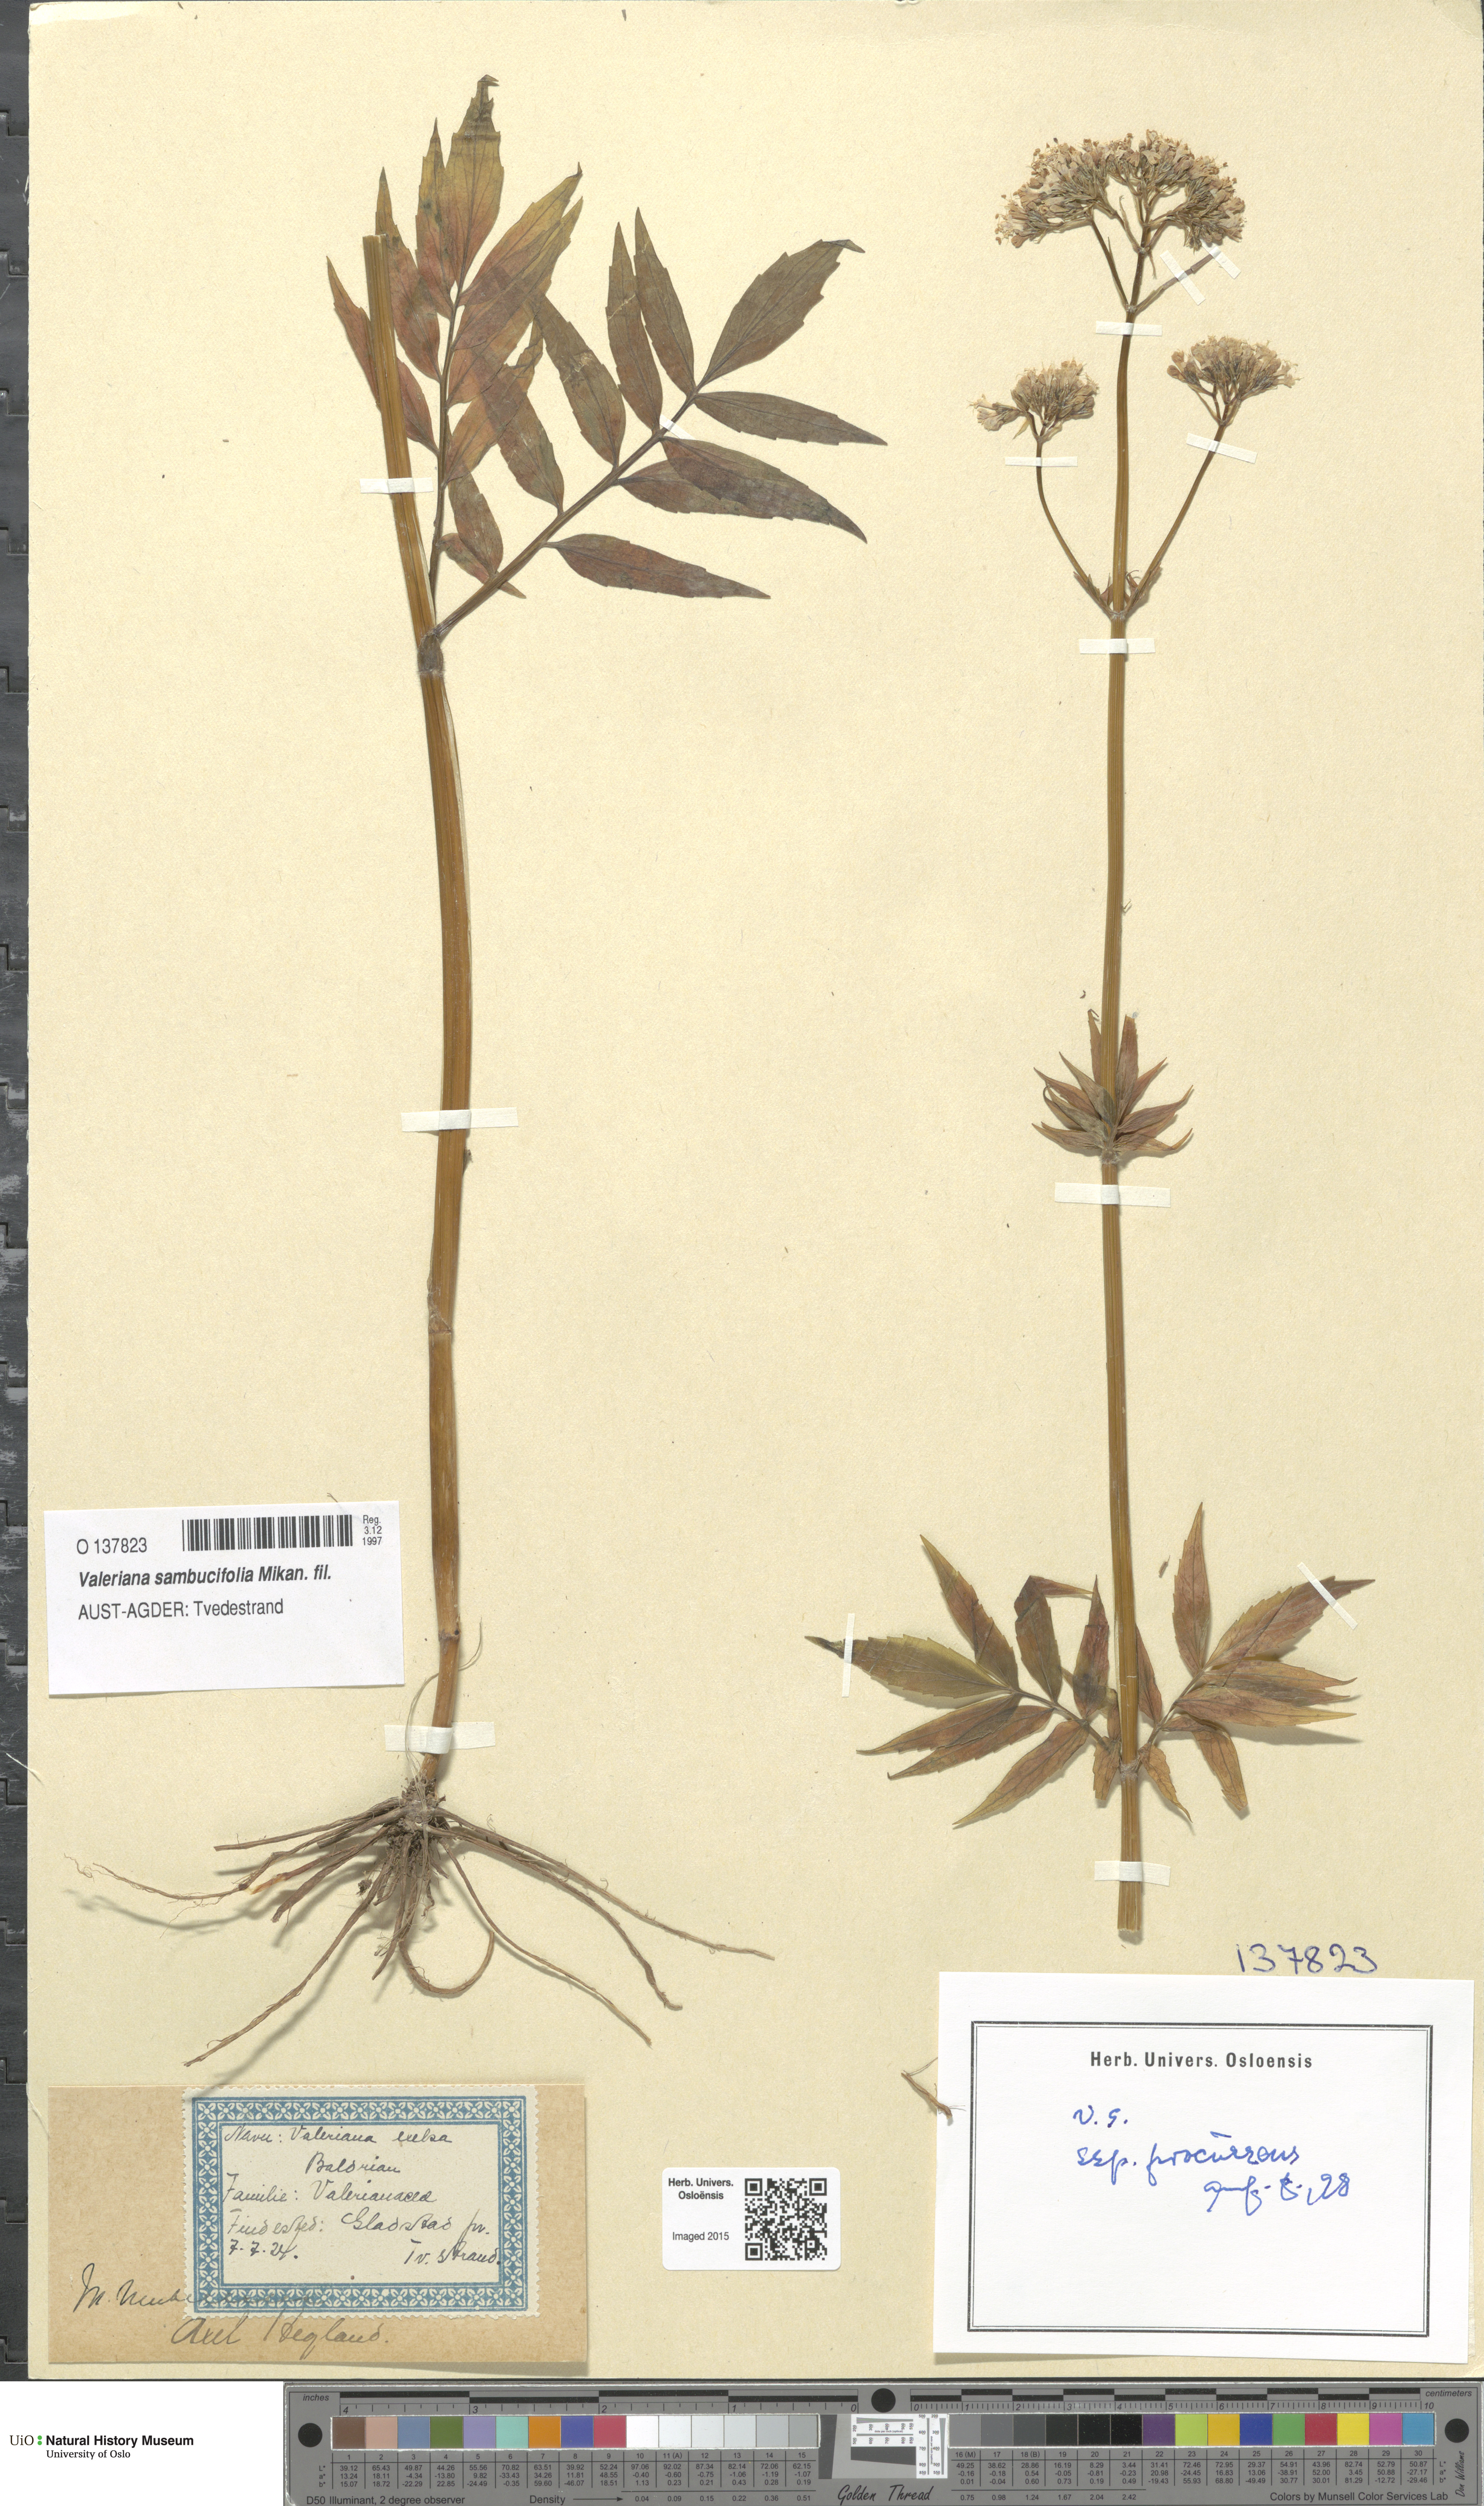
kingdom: Plantae
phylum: Tracheophyta
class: Magnoliopsida
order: Dipsacales
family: Caprifoliaceae
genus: Valeriana
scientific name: Valeriana sambucifolia
